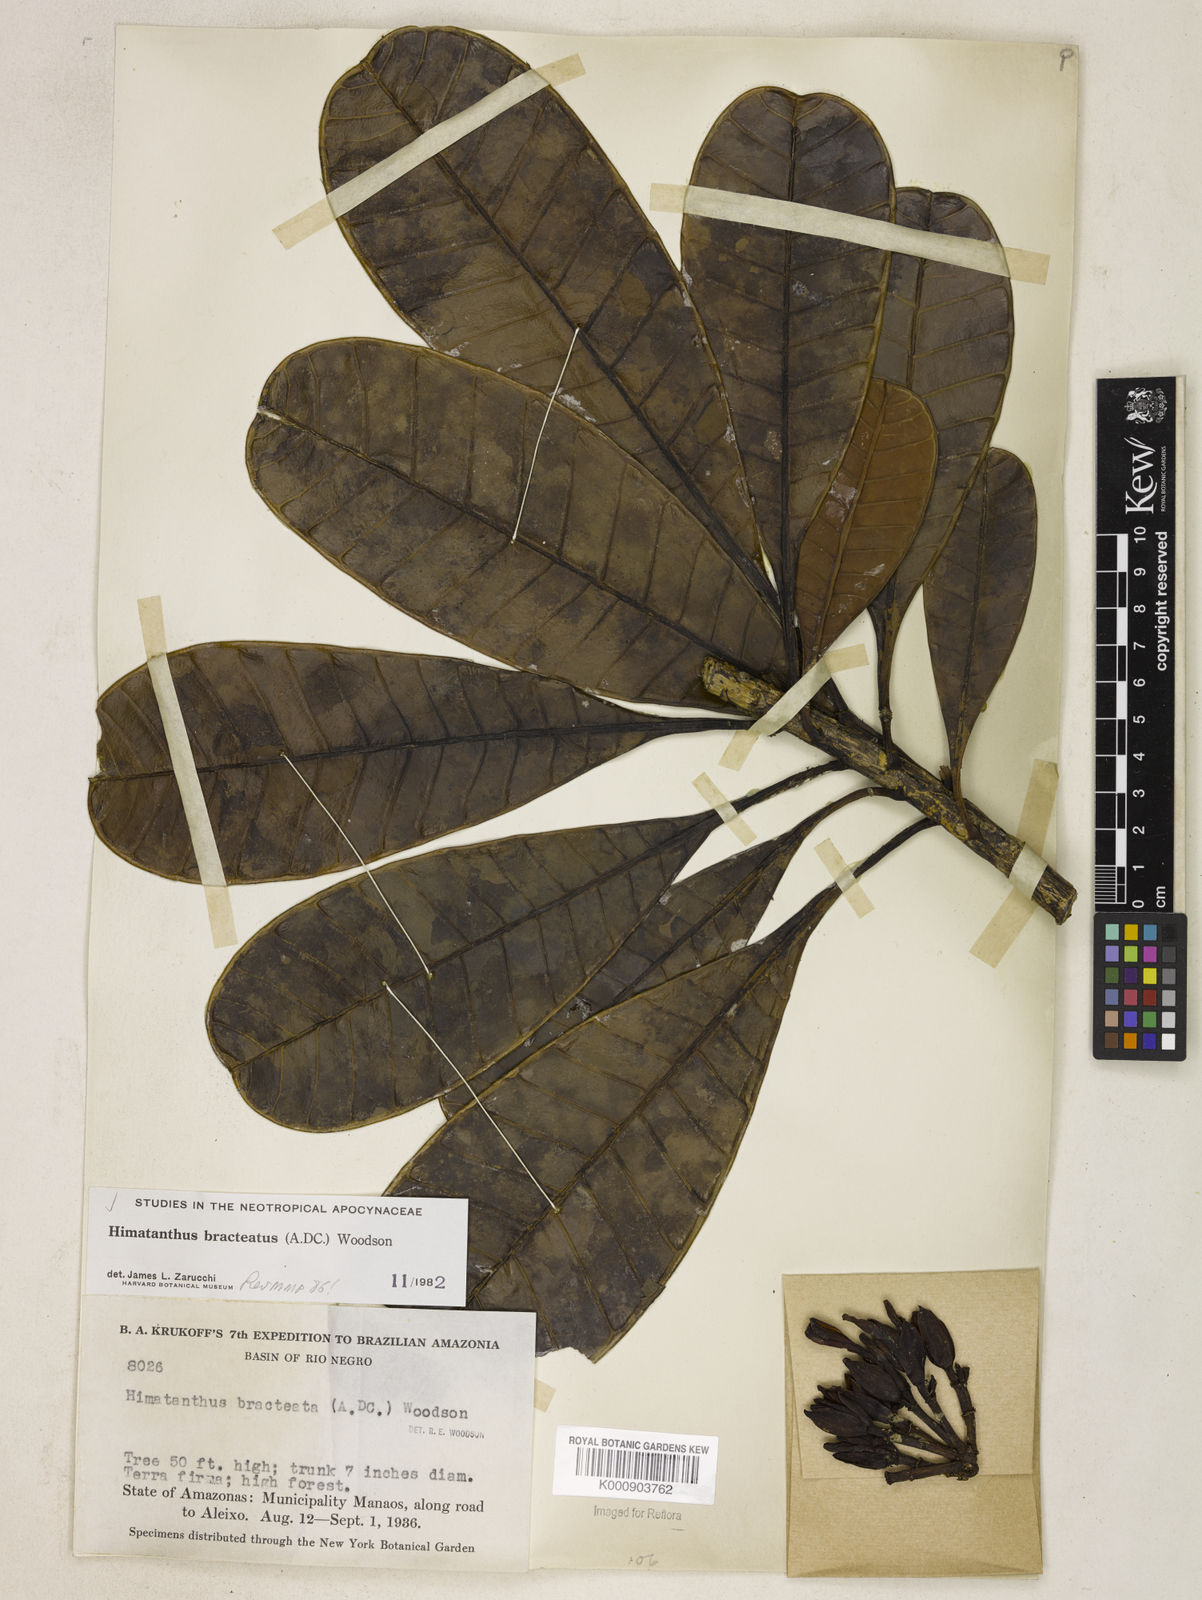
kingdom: Plantae
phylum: Tracheophyta
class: Magnoliopsida
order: Gentianales
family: Apocynaceae
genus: Himatanthus
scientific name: Himatanthus bracteatus
